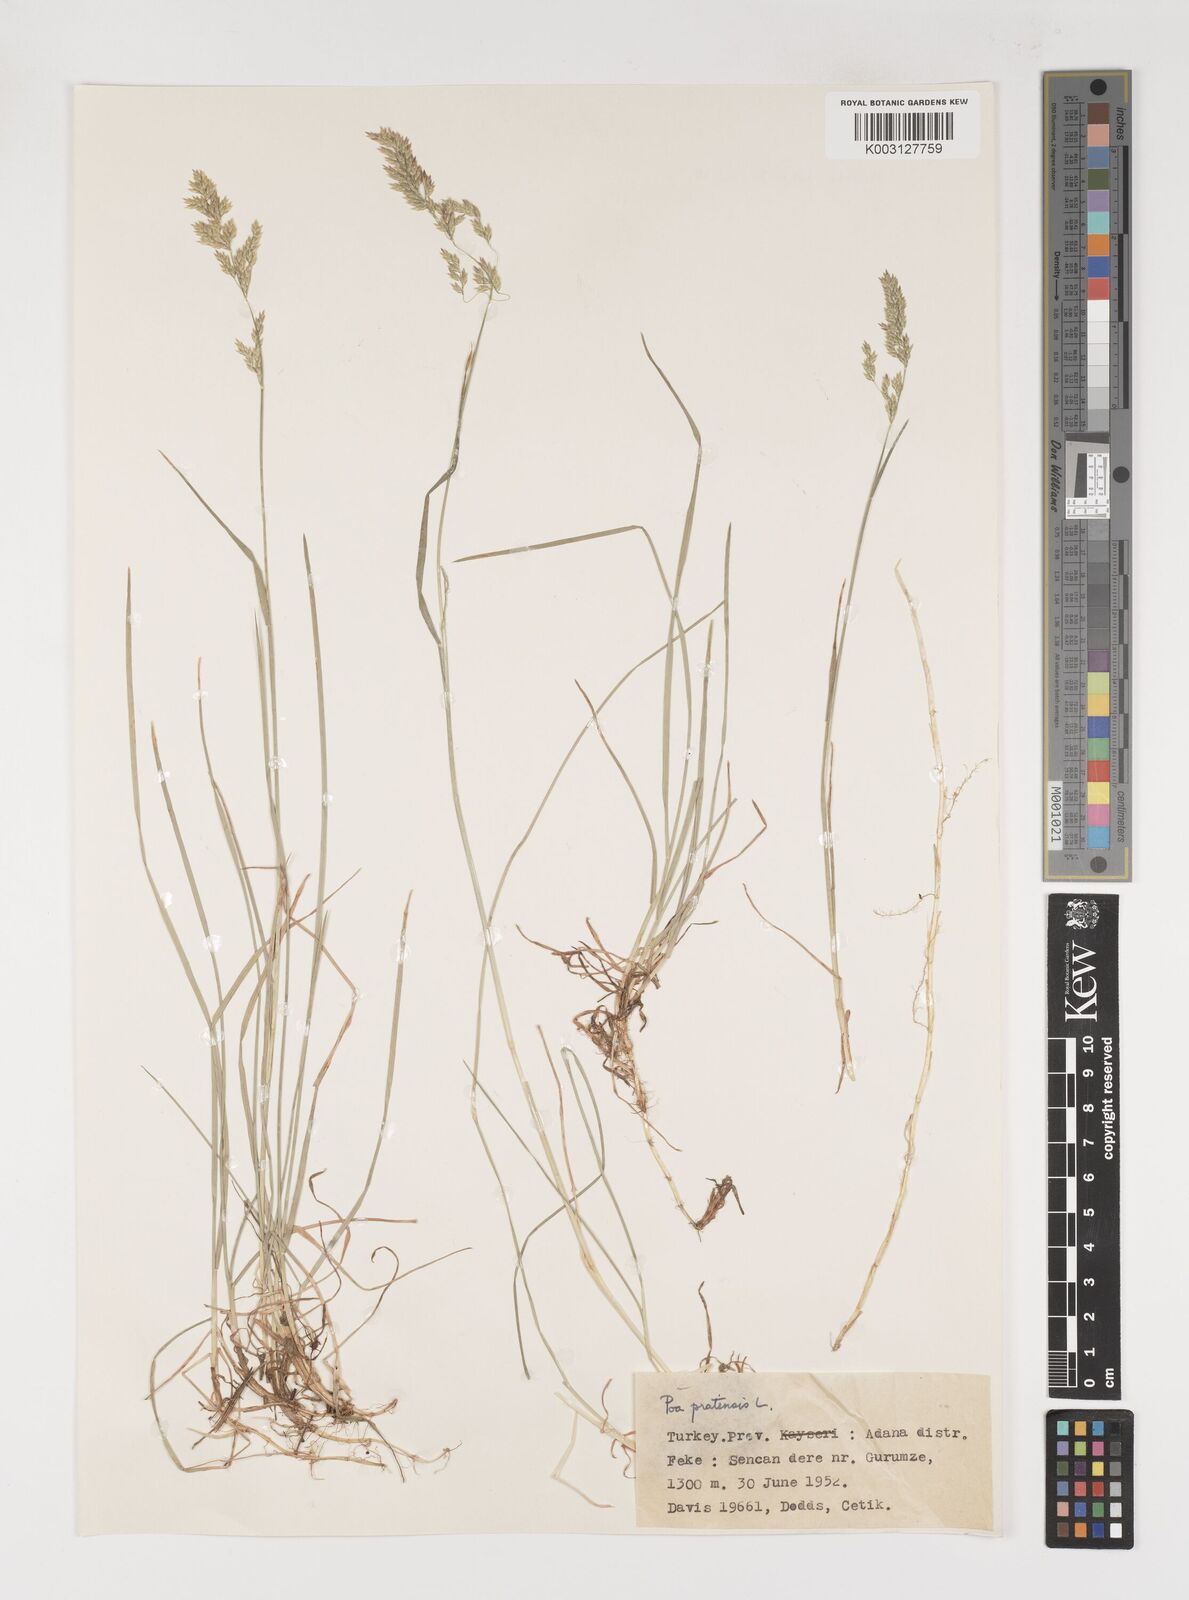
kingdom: Plantae
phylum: Tracheophyta
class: Liliopsida
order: Poales
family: Poaceae
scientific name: Poaceae
